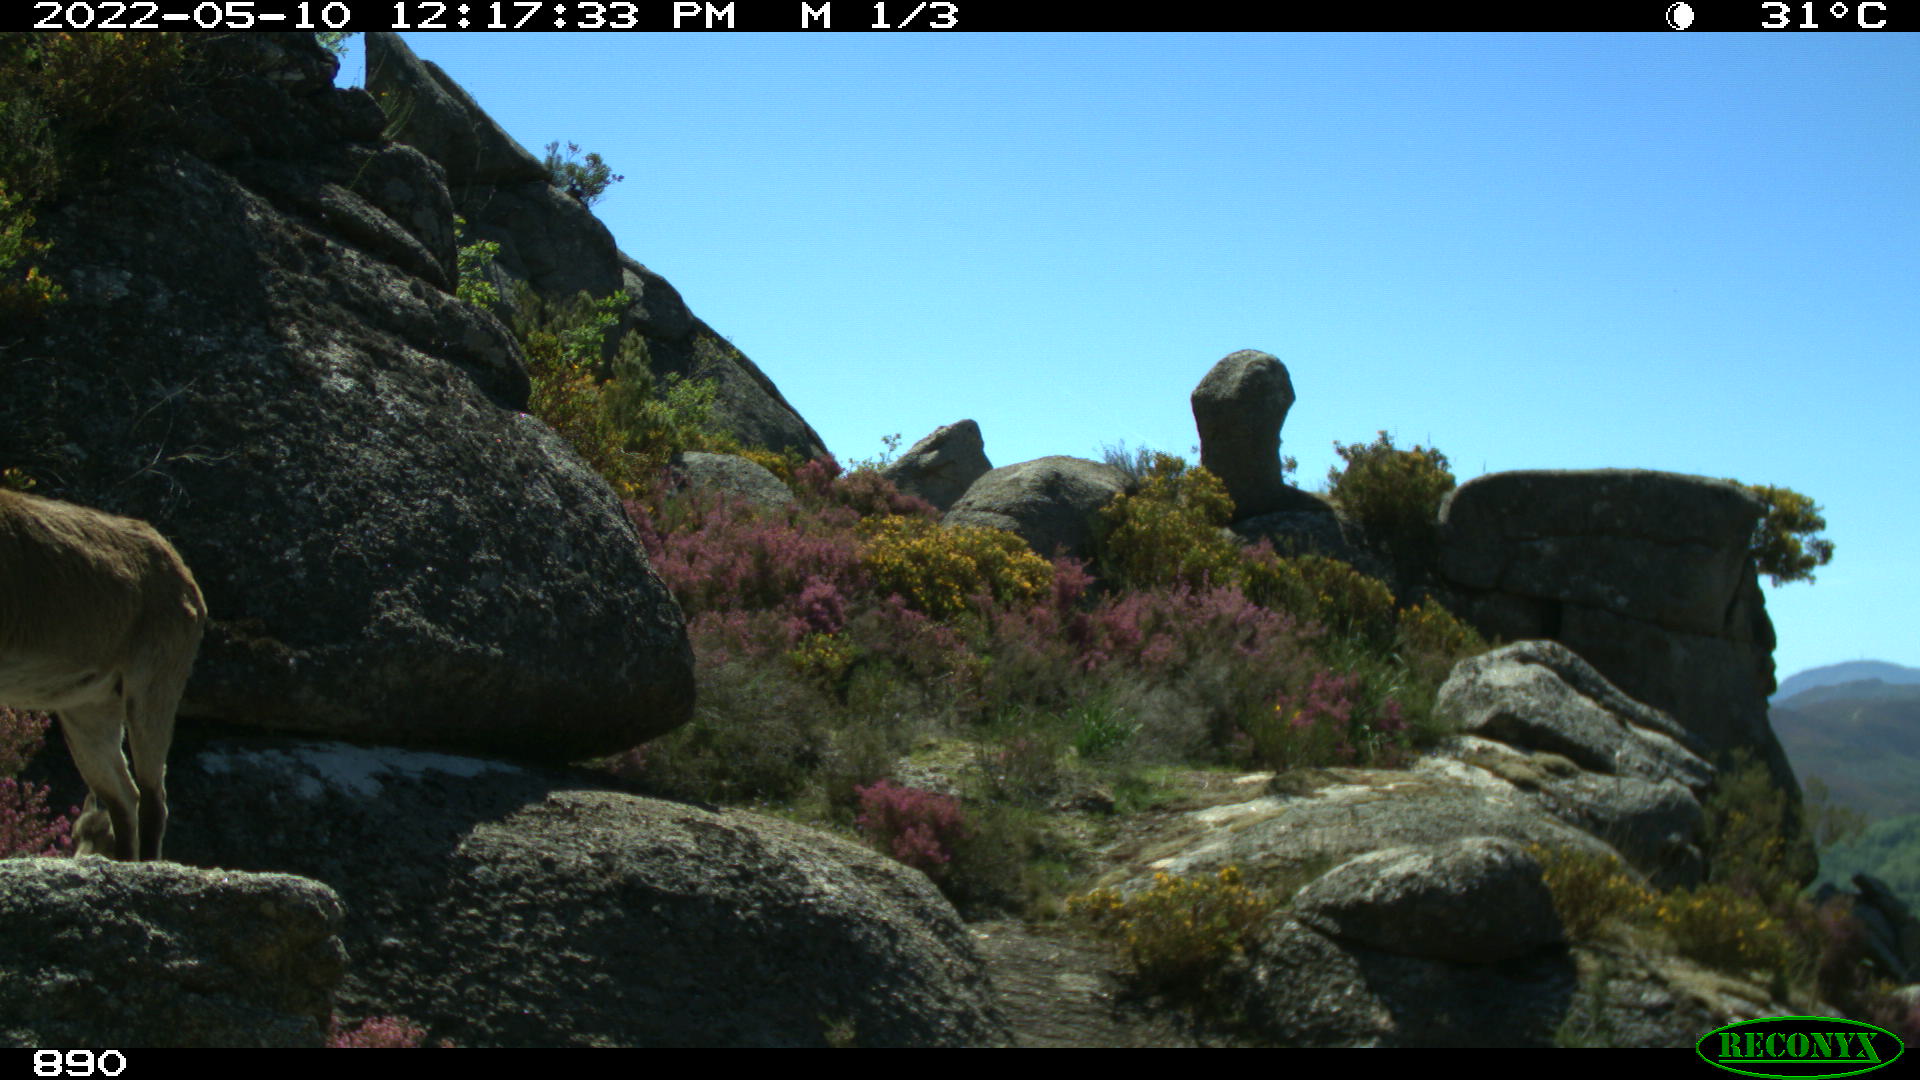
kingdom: Animalia
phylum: Chordata
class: Mammalia
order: Artiodactyla
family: Bovidae
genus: Capra
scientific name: Capra pyrenaica
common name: Spanish ibex
